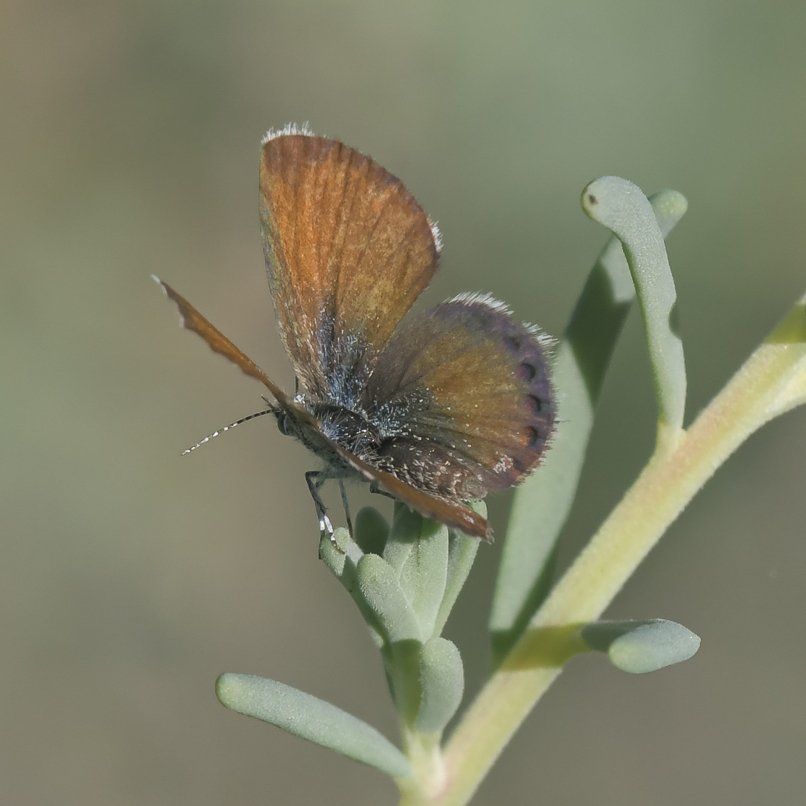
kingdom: Animalia
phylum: Arthropoda
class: Insecta
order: Lepidoptera
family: Lycaenidae
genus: Brephidium
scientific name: Brephidium exilis
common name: Western Pygmy-Blue
